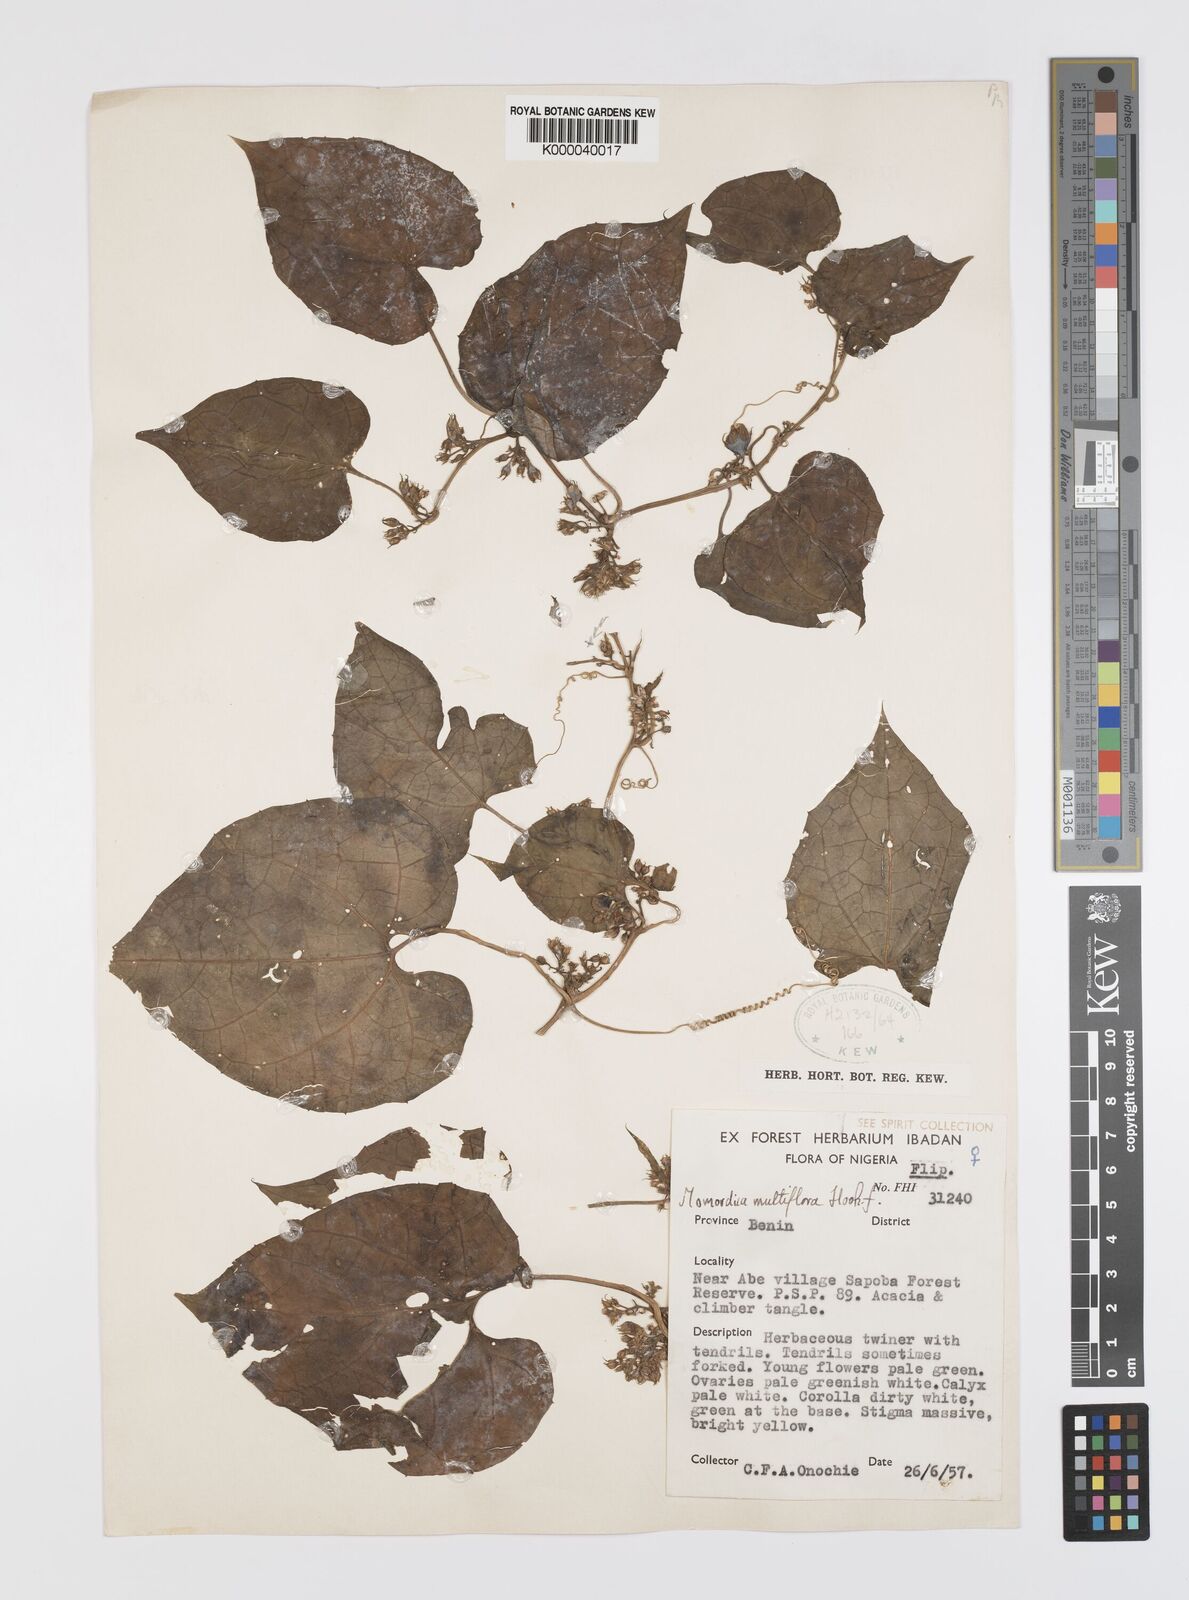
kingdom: Plantae
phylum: Tracheophyta
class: Magnoliopsida
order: Cucurbitales
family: Cucurbitaceae
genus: Momordica
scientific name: Momordica multiflora
